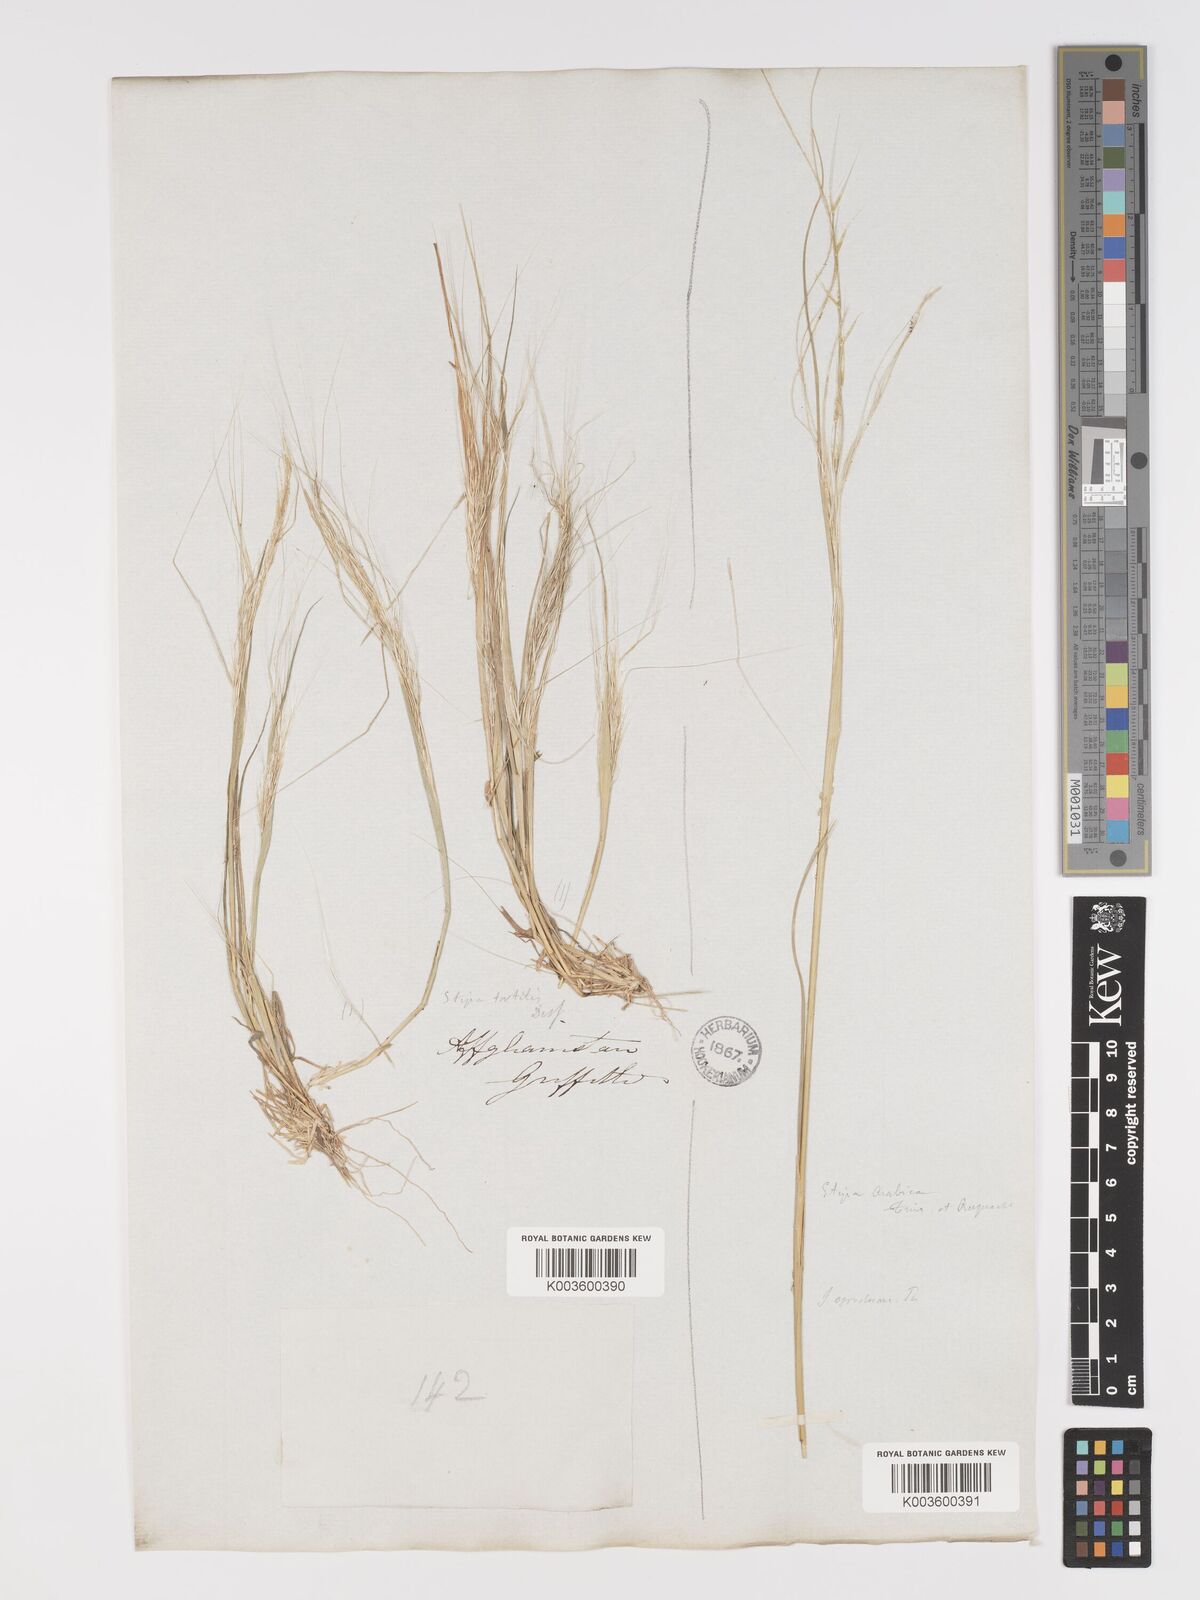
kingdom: Plantae
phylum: Tracheophyta
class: Liliopsida
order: Poales
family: Poaceae
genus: Stipellula
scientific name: Stipellula capensis
